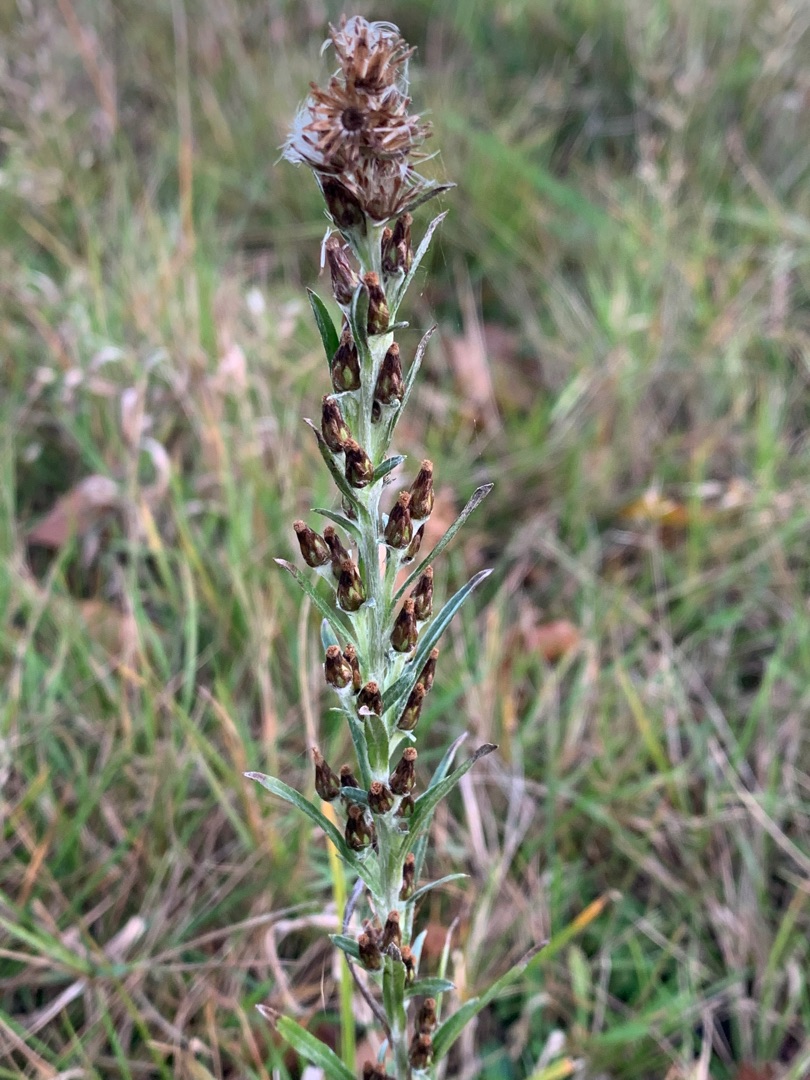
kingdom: Plantae
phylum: Tracheophyta
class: Magnoliopsida
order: Asterales
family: Asteraceae
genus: Omalotheca
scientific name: Omalotheca sylvatica
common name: Rank evighedsblomst
